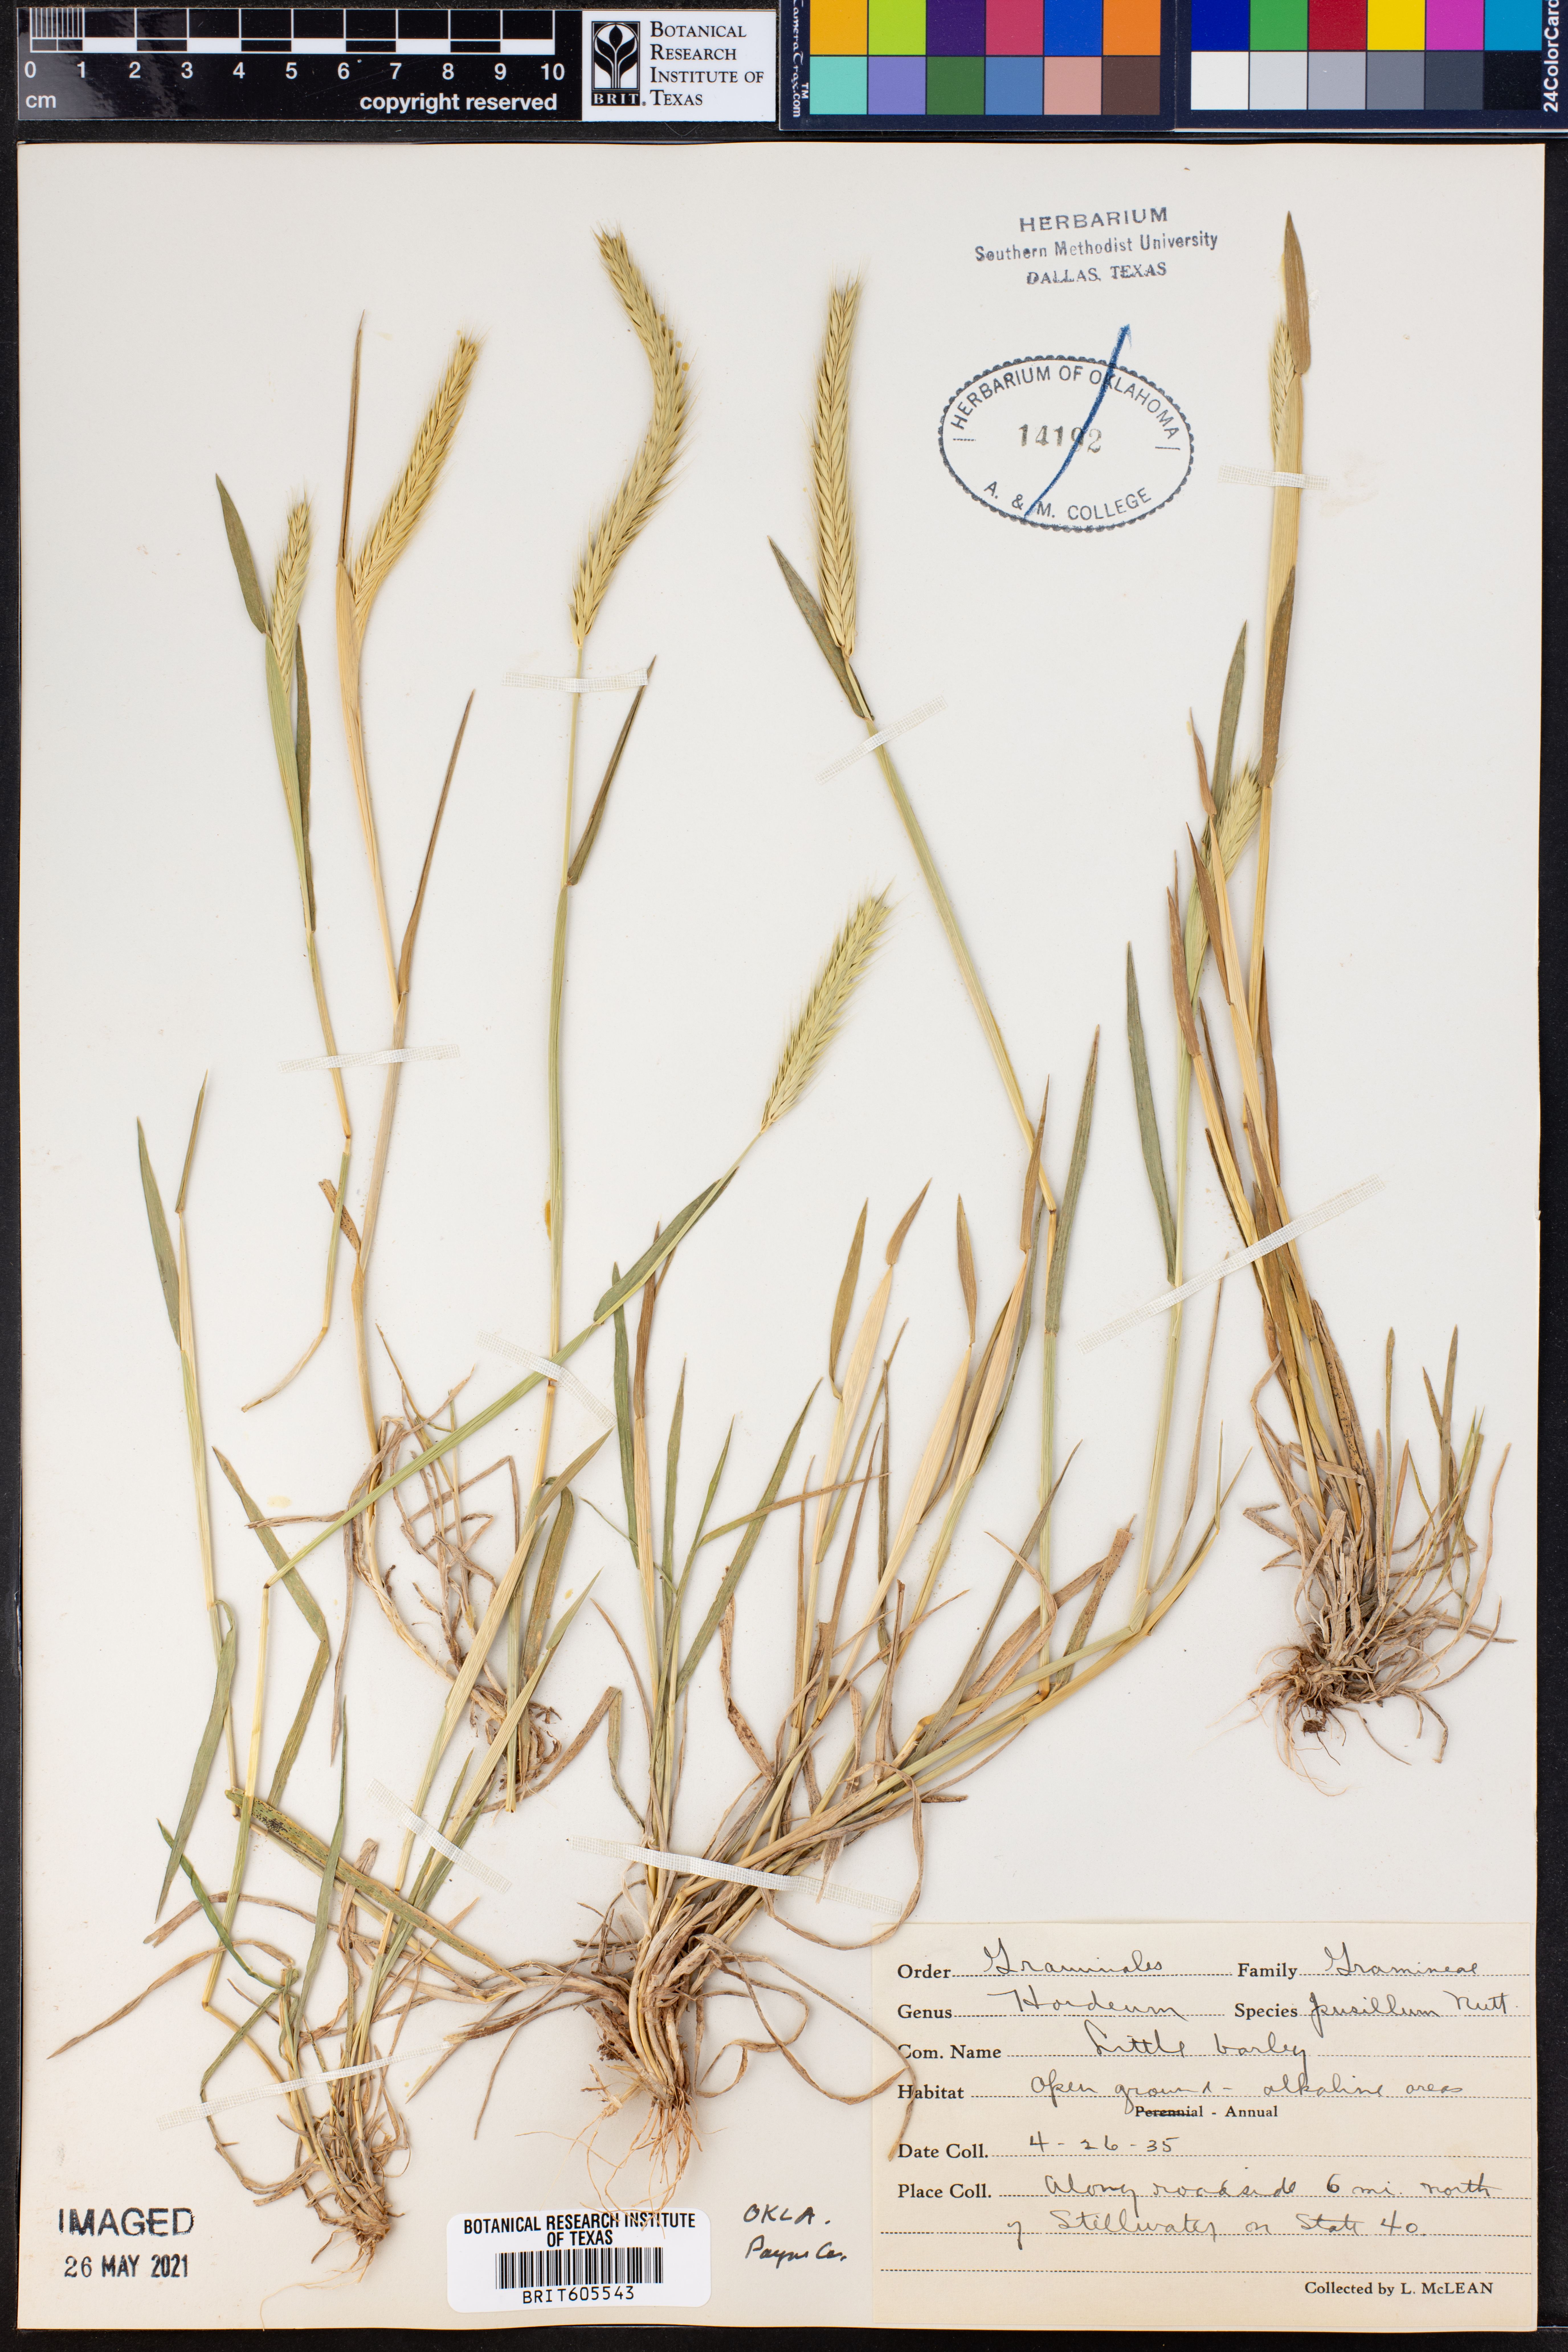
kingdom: Plantae
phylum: Tracheophyta
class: Liliopsida
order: Poales
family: Poaceae
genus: Hordeum
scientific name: Hordeum pusillum
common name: Little barley
